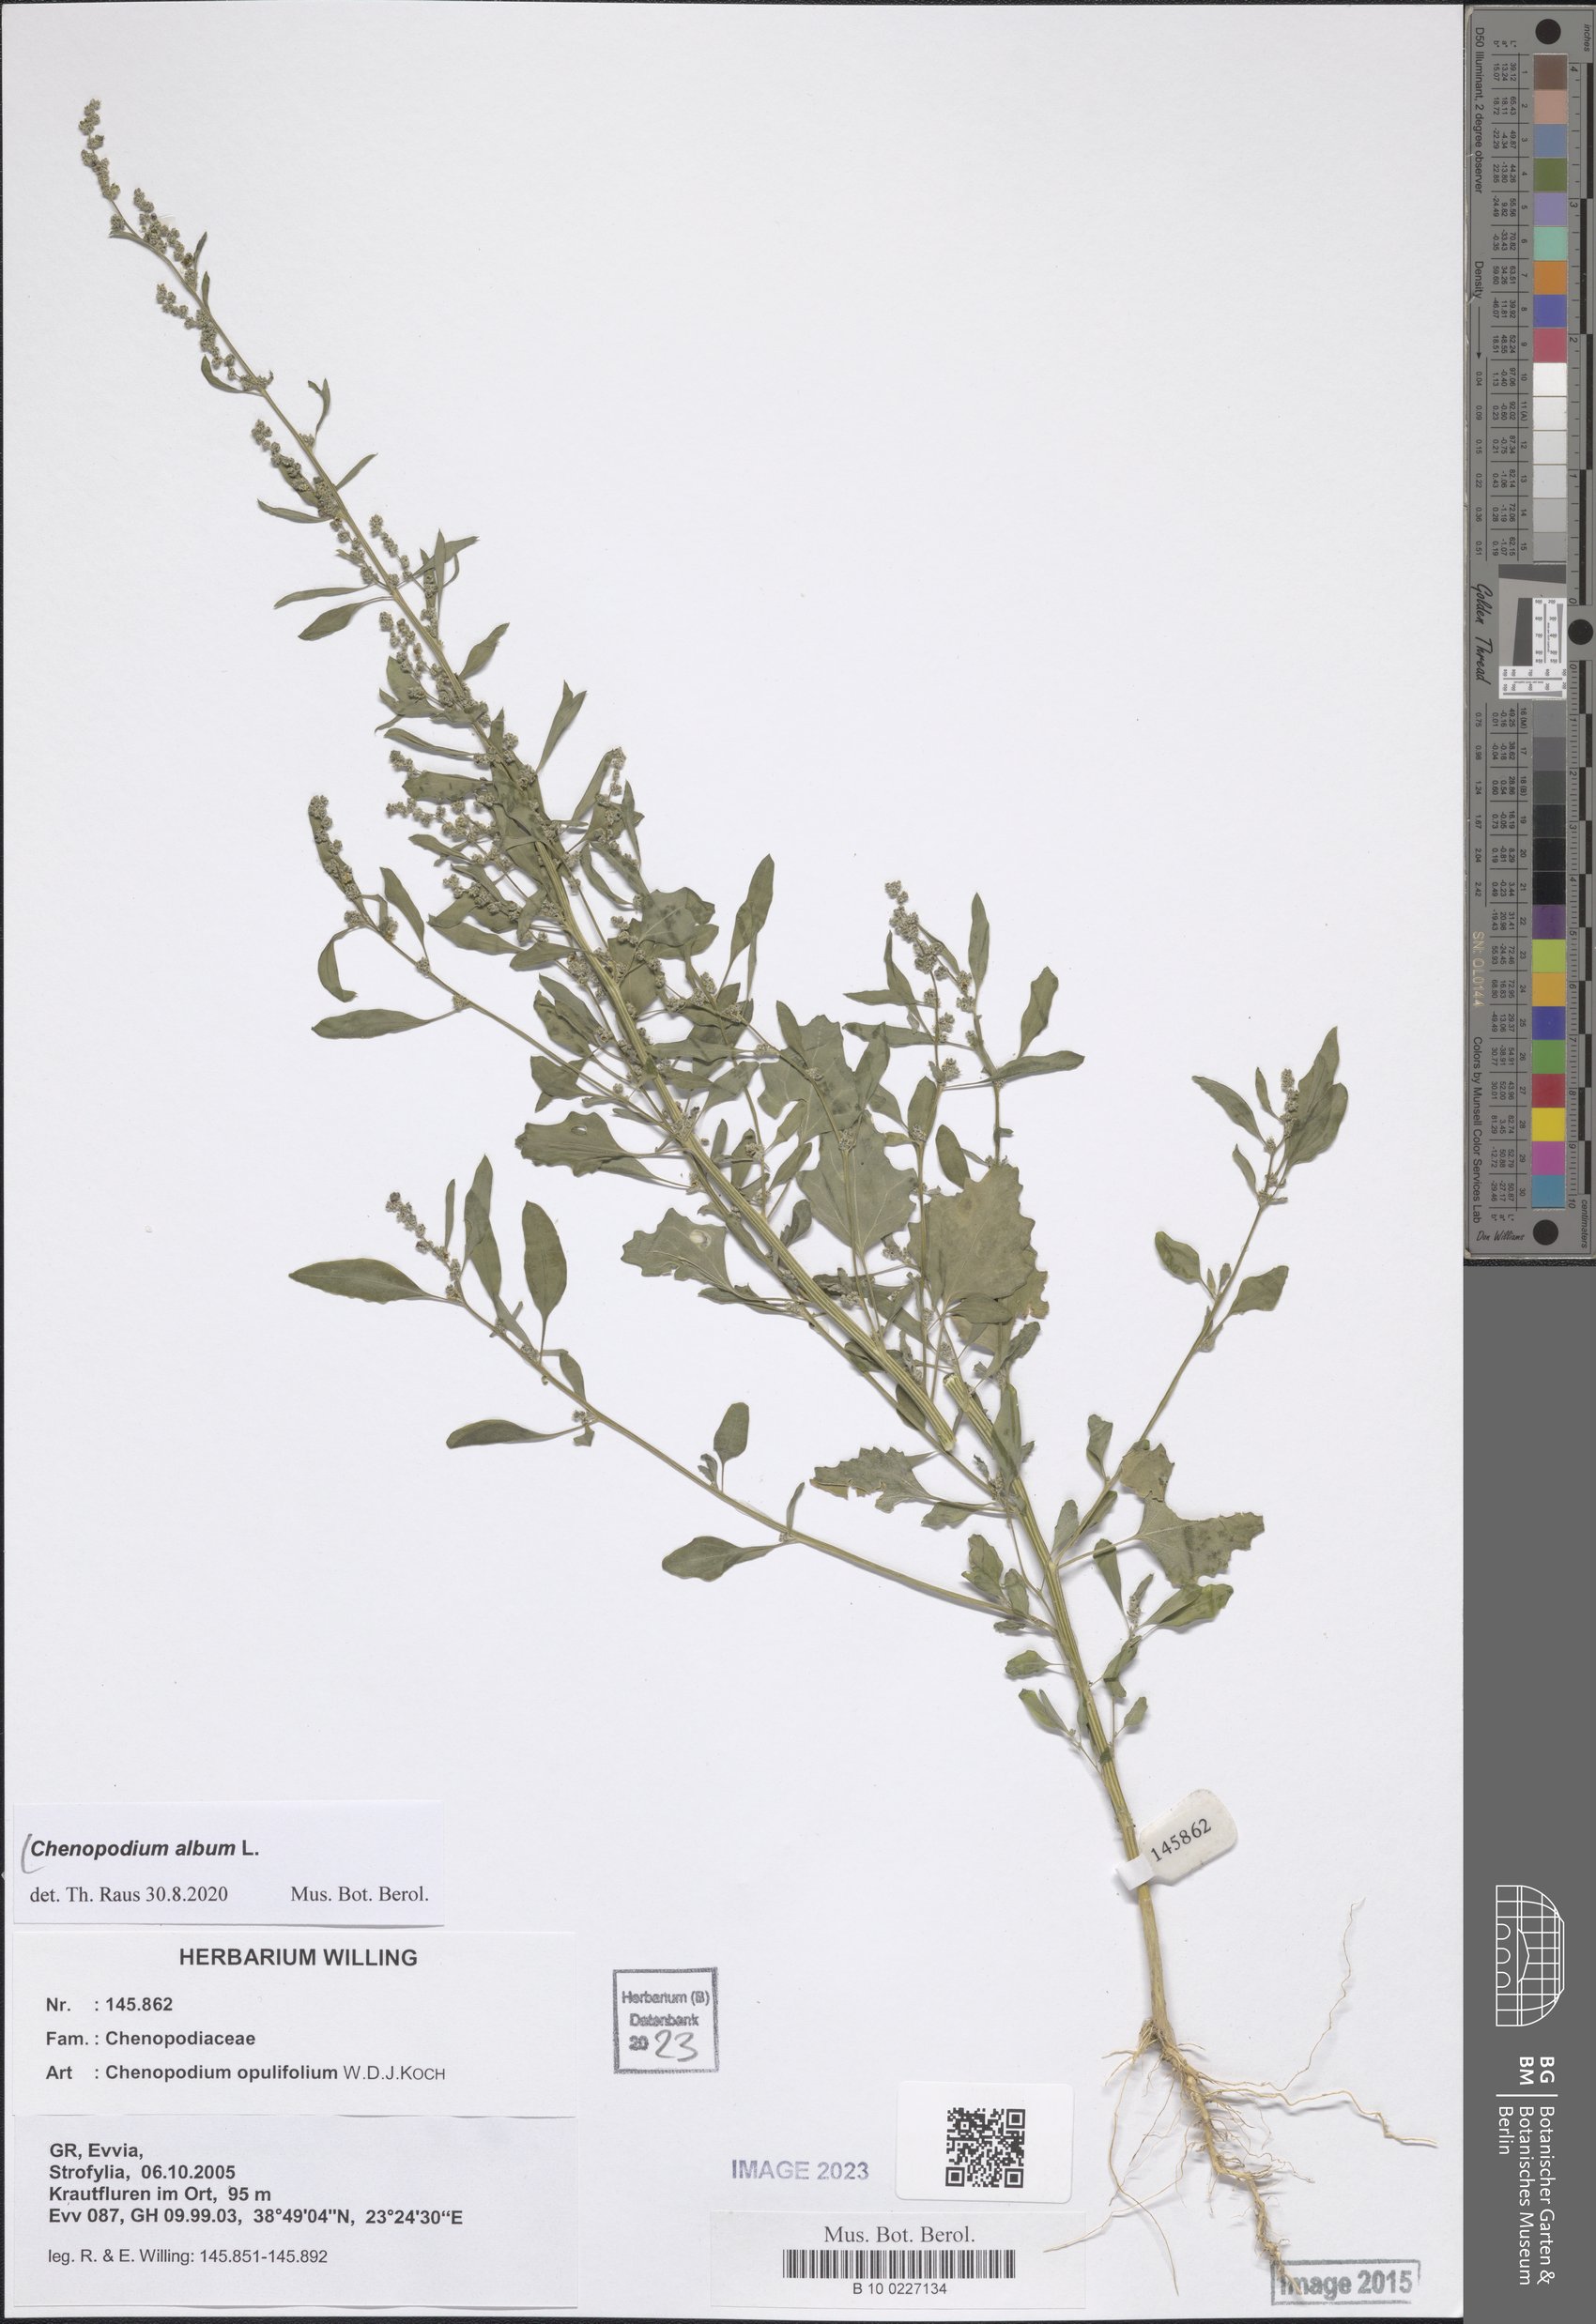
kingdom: Plantae
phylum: Tracheophyta
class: Magnoliopsida
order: Caryophyllales
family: Amaranthaceae
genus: Chenopodium
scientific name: Chenopodium album
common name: Fat-hen
